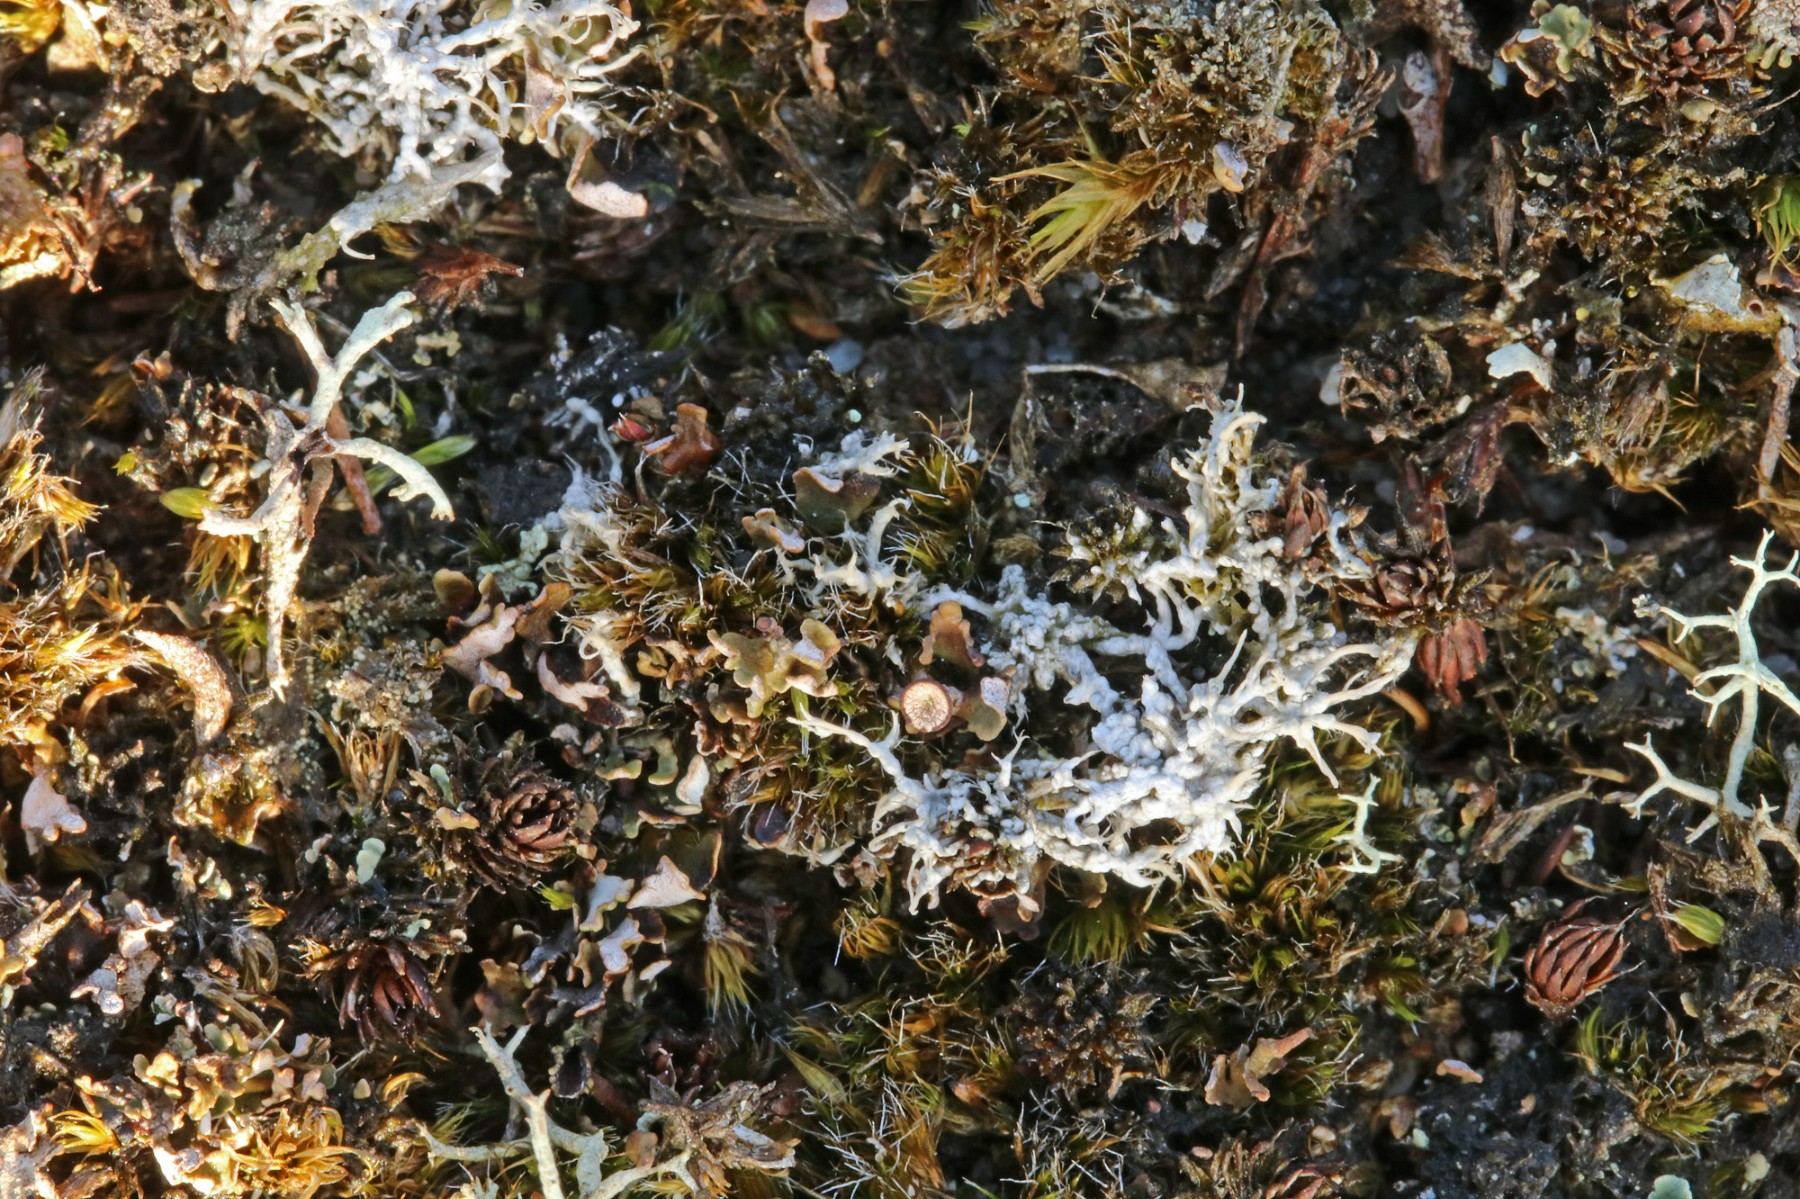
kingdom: Fungi
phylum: Ascomycota
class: Lecanoromycetes
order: Pertusariales
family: Ochrolechiaceae
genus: Ochrolechia
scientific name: Ochrolechia frigida
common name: fjeld-blegskivelav
